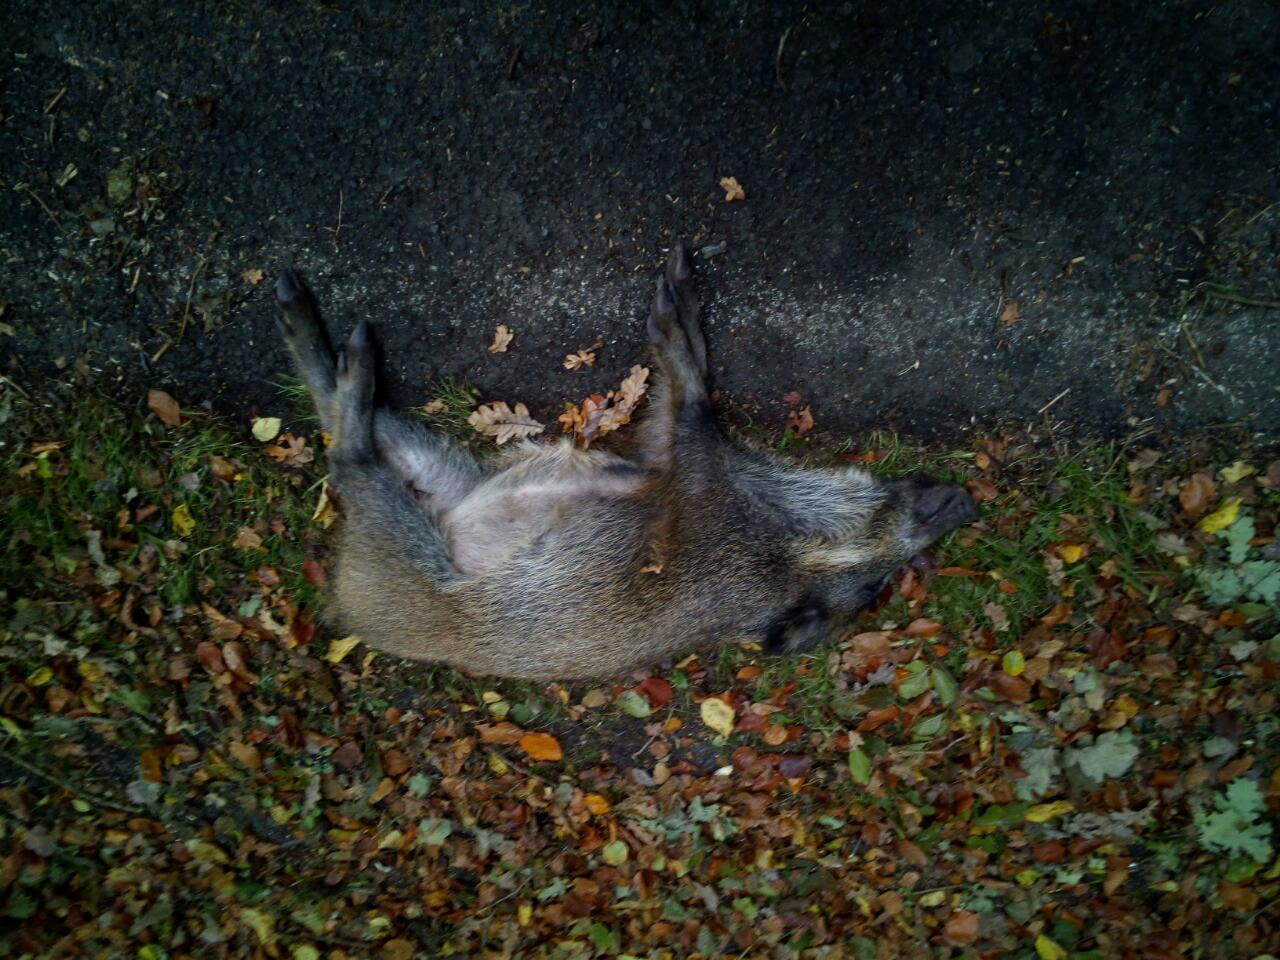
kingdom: Animalia
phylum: Chordata
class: Mammalia
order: Artiodactyla
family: Suidae
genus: Sus
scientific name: Sus scrofa
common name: Wild boar
